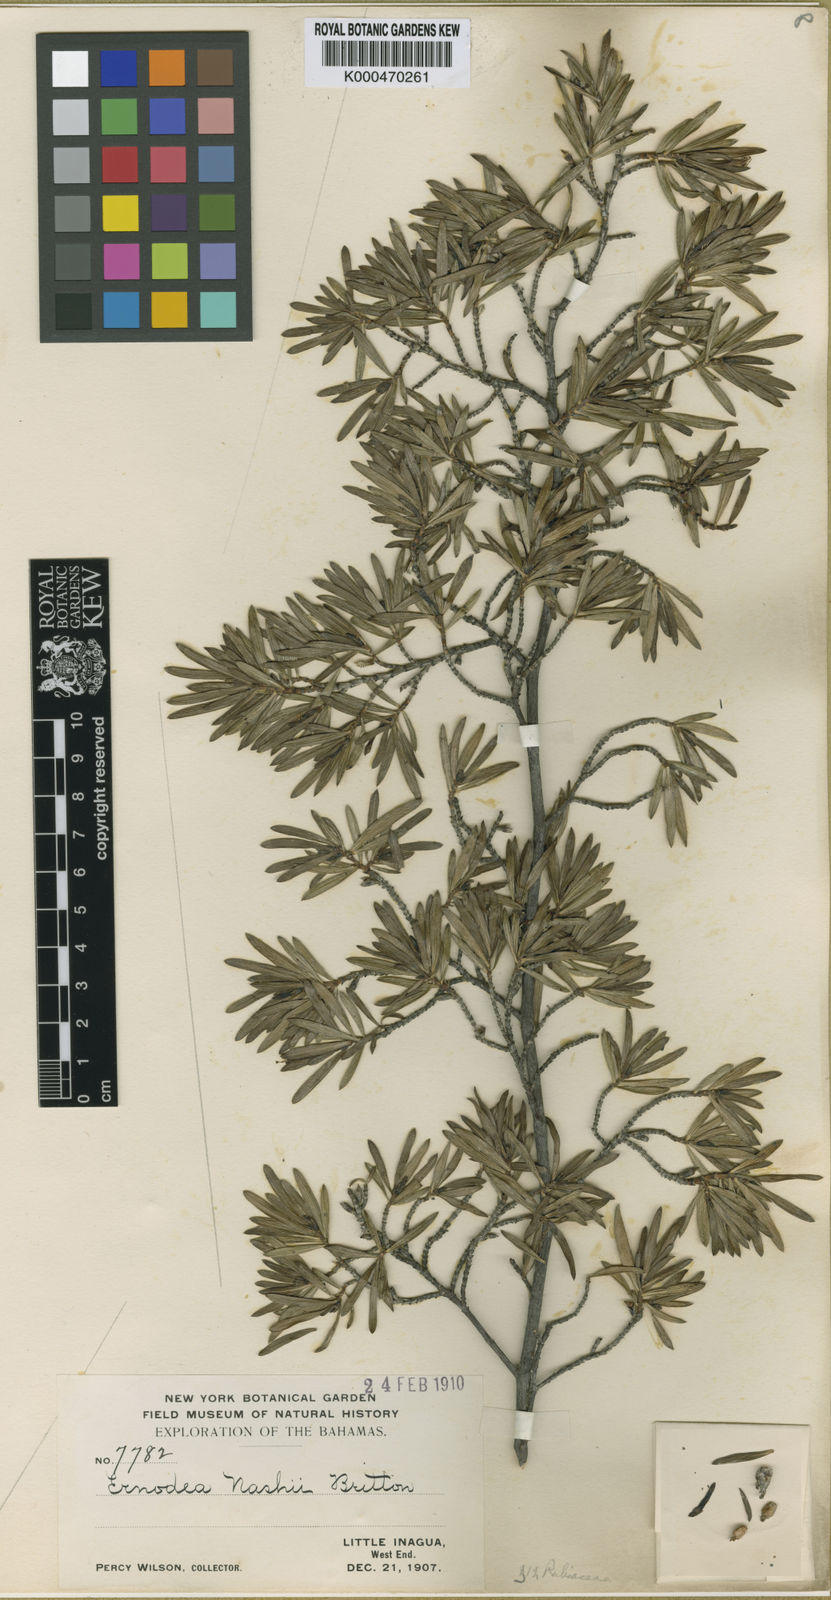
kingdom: Plantae
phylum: Tracheophyta
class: Magnoliopsida
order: Gentianales
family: Rubiaceae
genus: Ernodea
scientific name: Ernodea nashii
